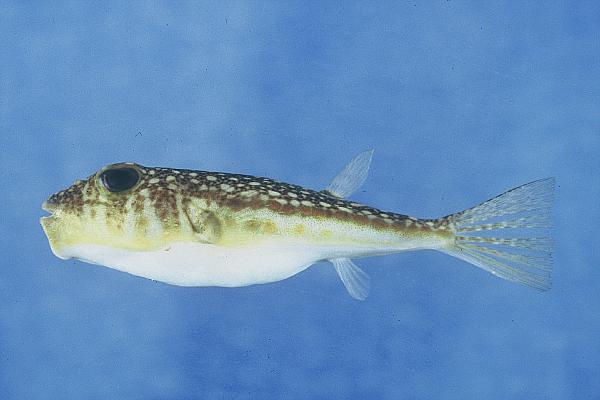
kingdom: Animalia
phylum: Chordata
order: Tetraodontiformes
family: Tetraodontidae
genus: Torquigener
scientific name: Torquigener flavimaculosus
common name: Studded pufferfish
